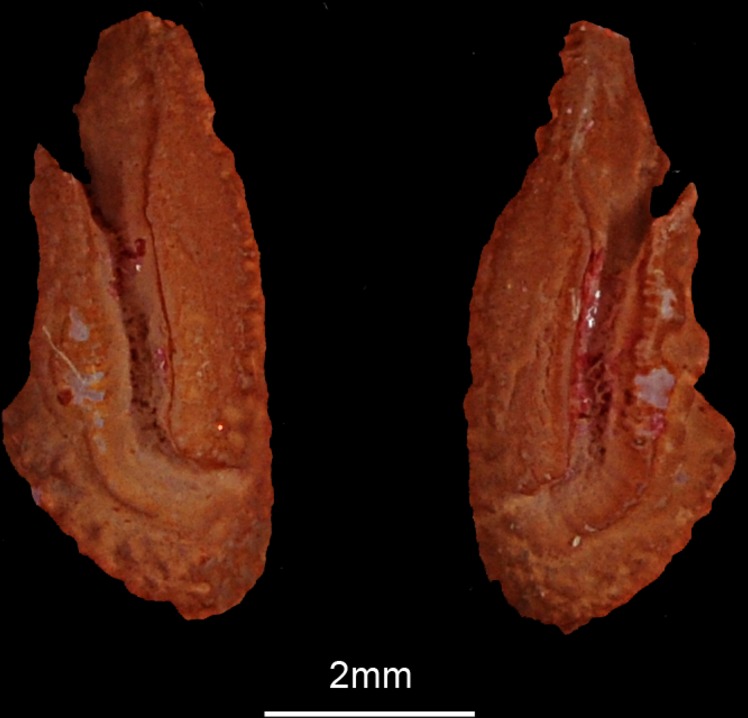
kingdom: Animalia
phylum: Chordata
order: Perciformes
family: Carangidae
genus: Carangoides
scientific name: Carangoides malabaricus
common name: Malabar trevally
